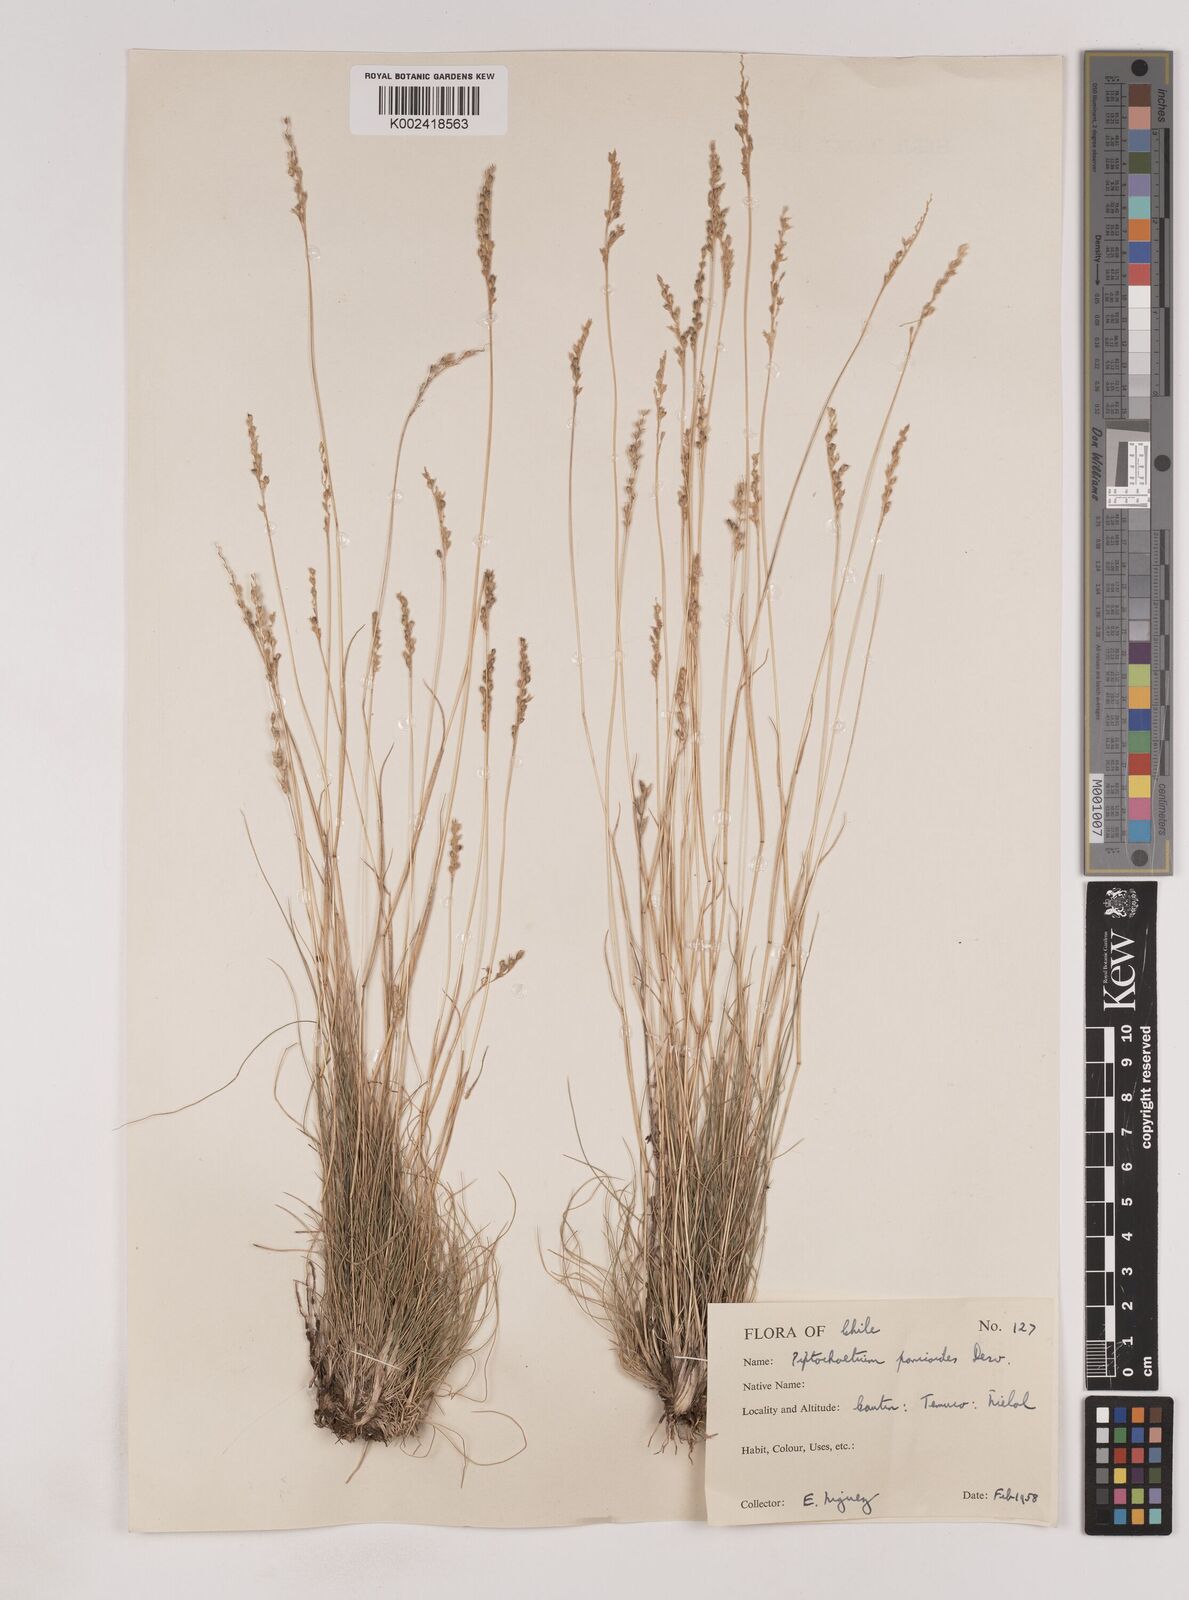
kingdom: Plantae
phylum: Tracheophyta
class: Liliopsida
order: Poales
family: Poaceae
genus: Piptochaetium
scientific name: Piptochaetium montevidense
